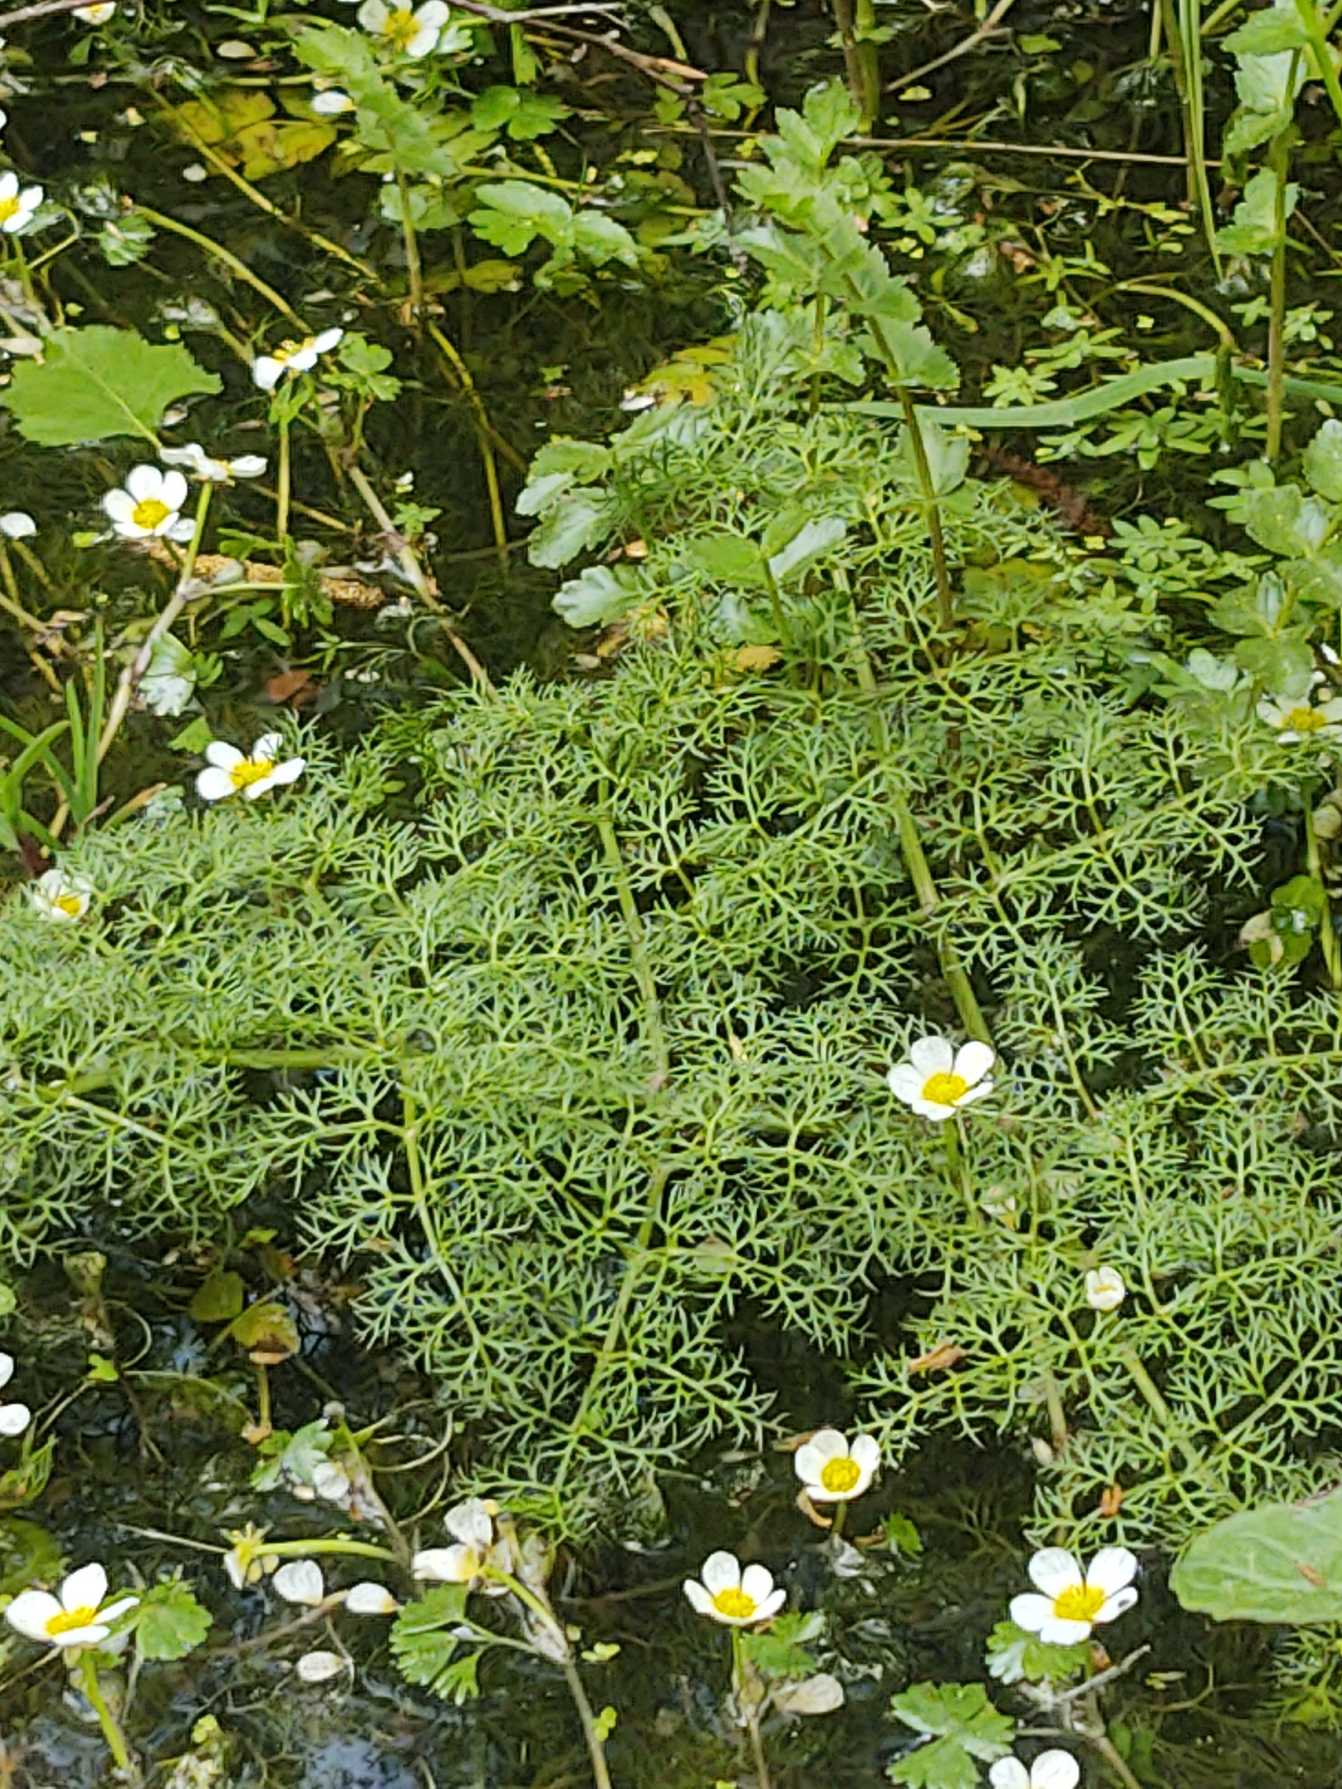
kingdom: Plantae
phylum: Tracheophyta
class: Magnoliopsida
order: Apiales
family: Apiaceae
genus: Oenanthe
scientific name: Oenanthe aquatica
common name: Billebo-klaseskærm
